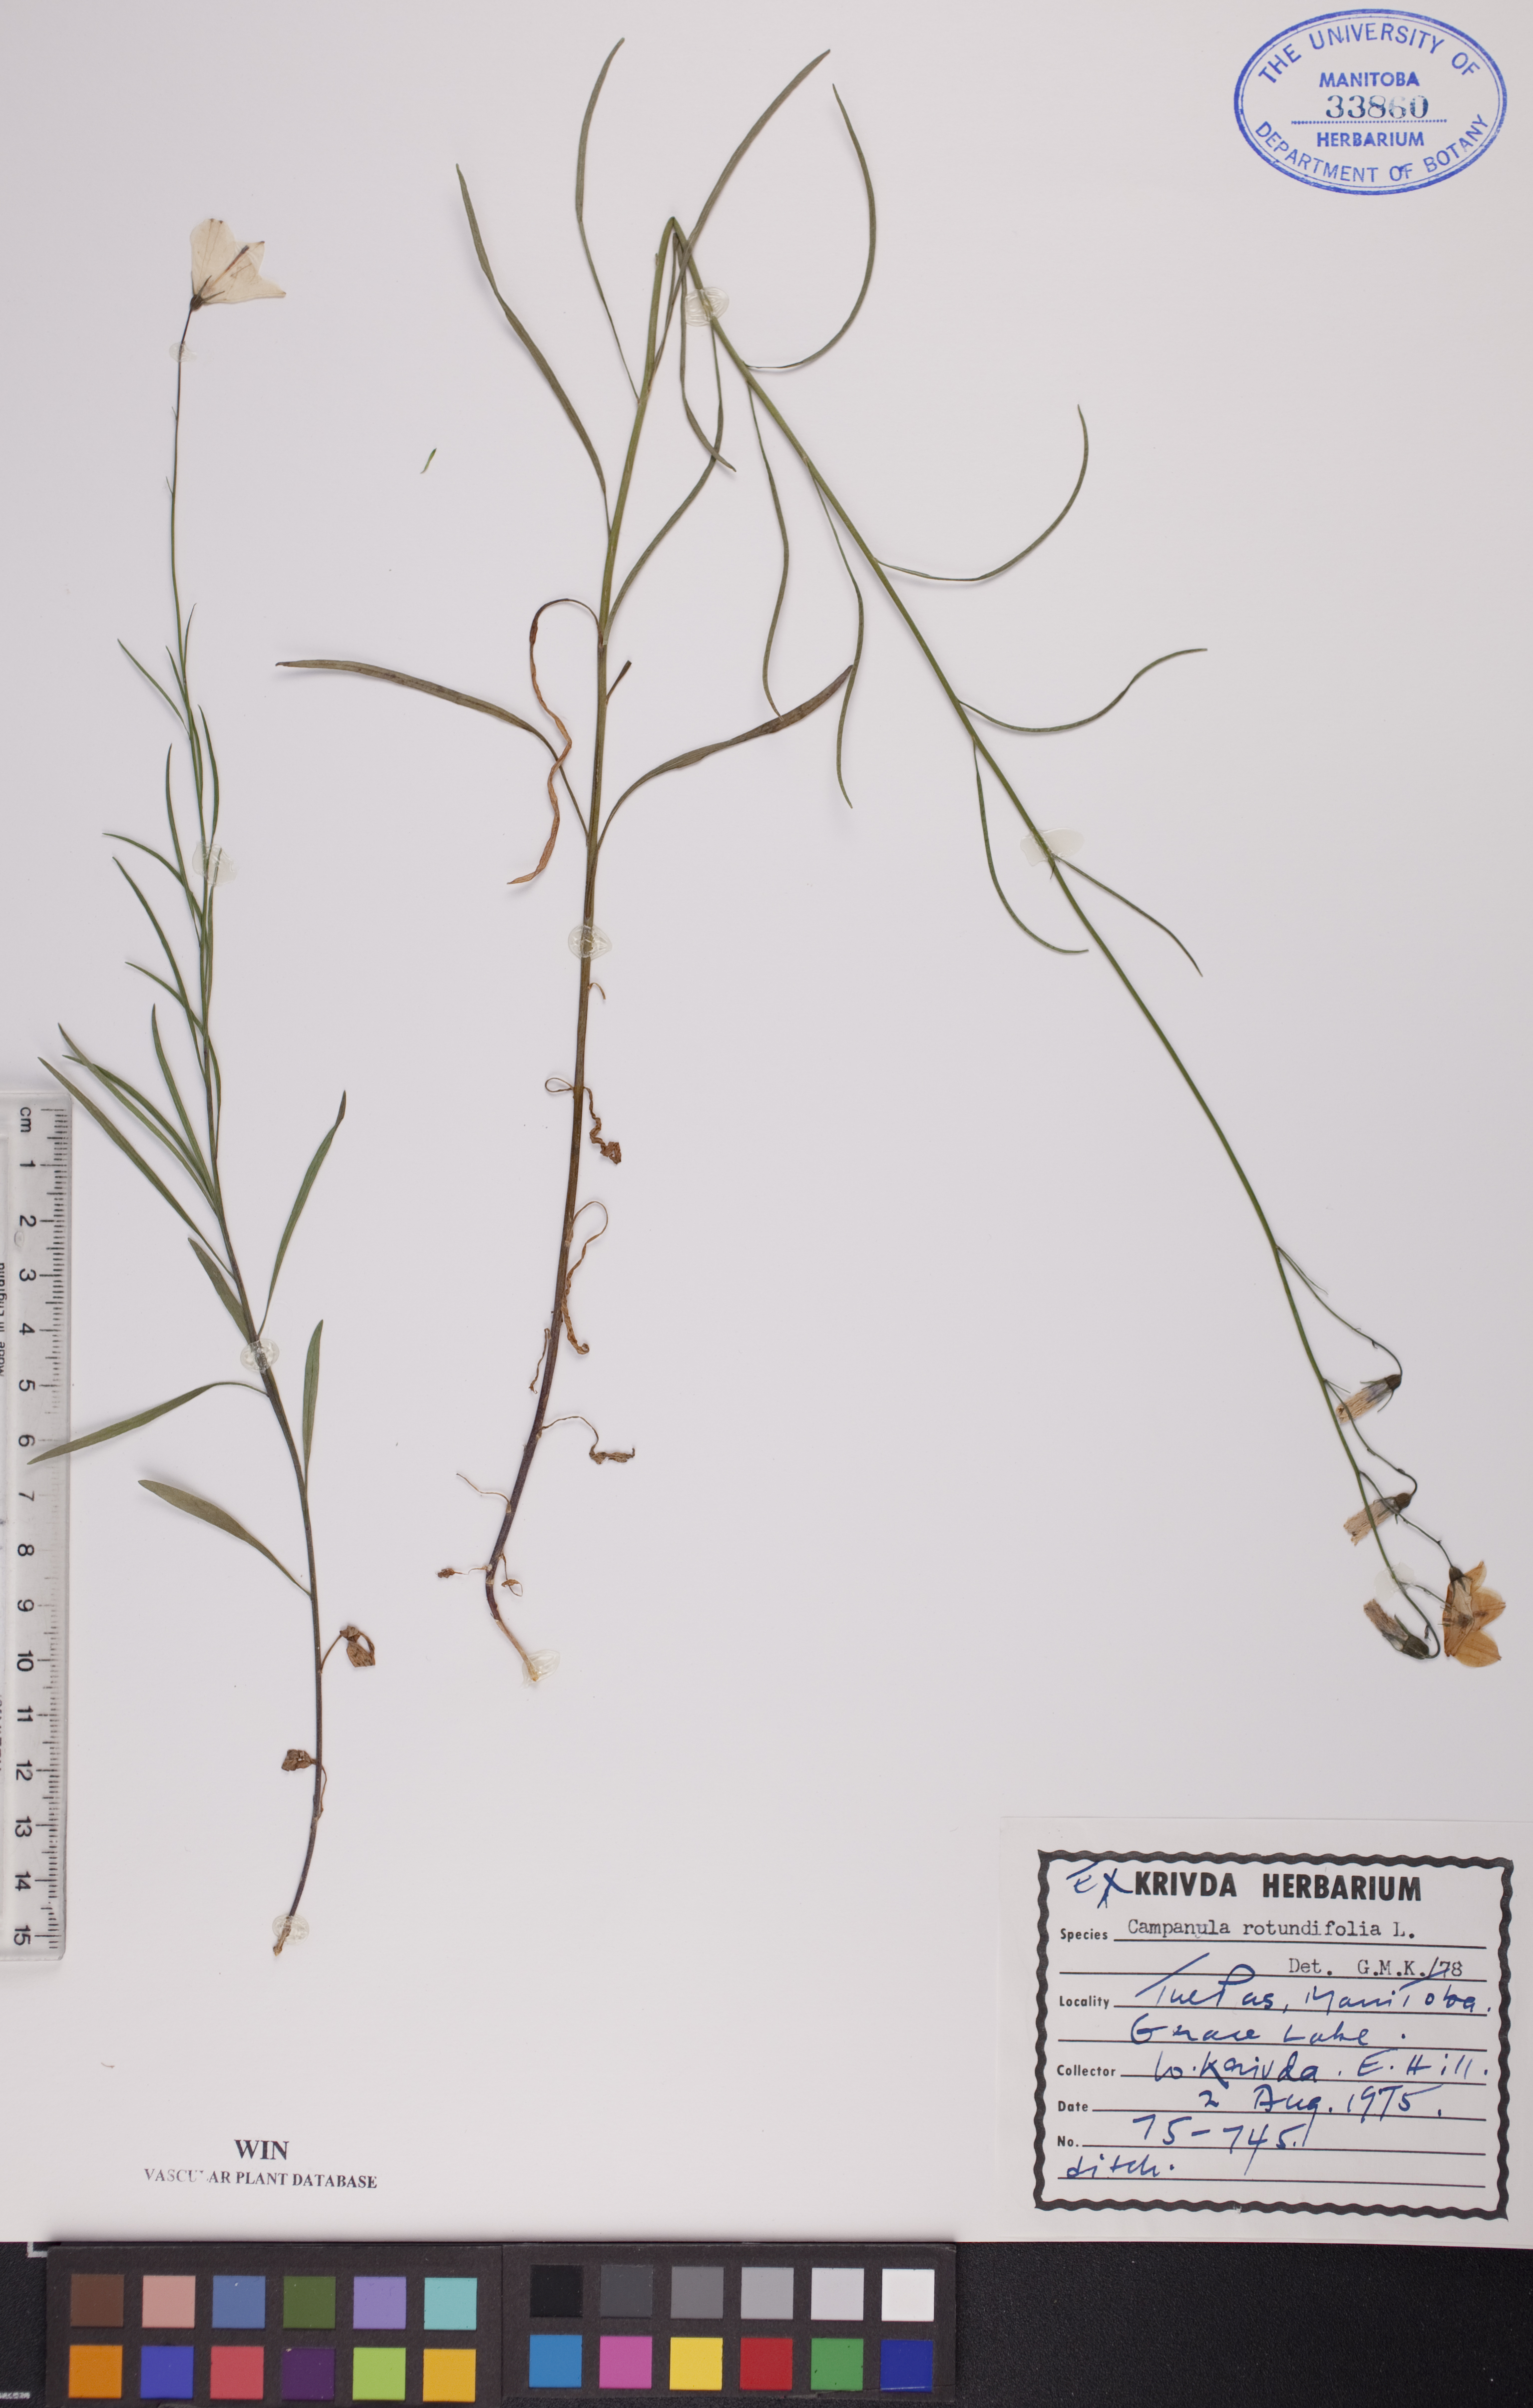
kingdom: Plantae
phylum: Tracheophyta
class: Magnoliopsida
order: Asterales
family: Campanulaceae
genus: Campanula
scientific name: Campanula rotundifolia
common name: Harebell
